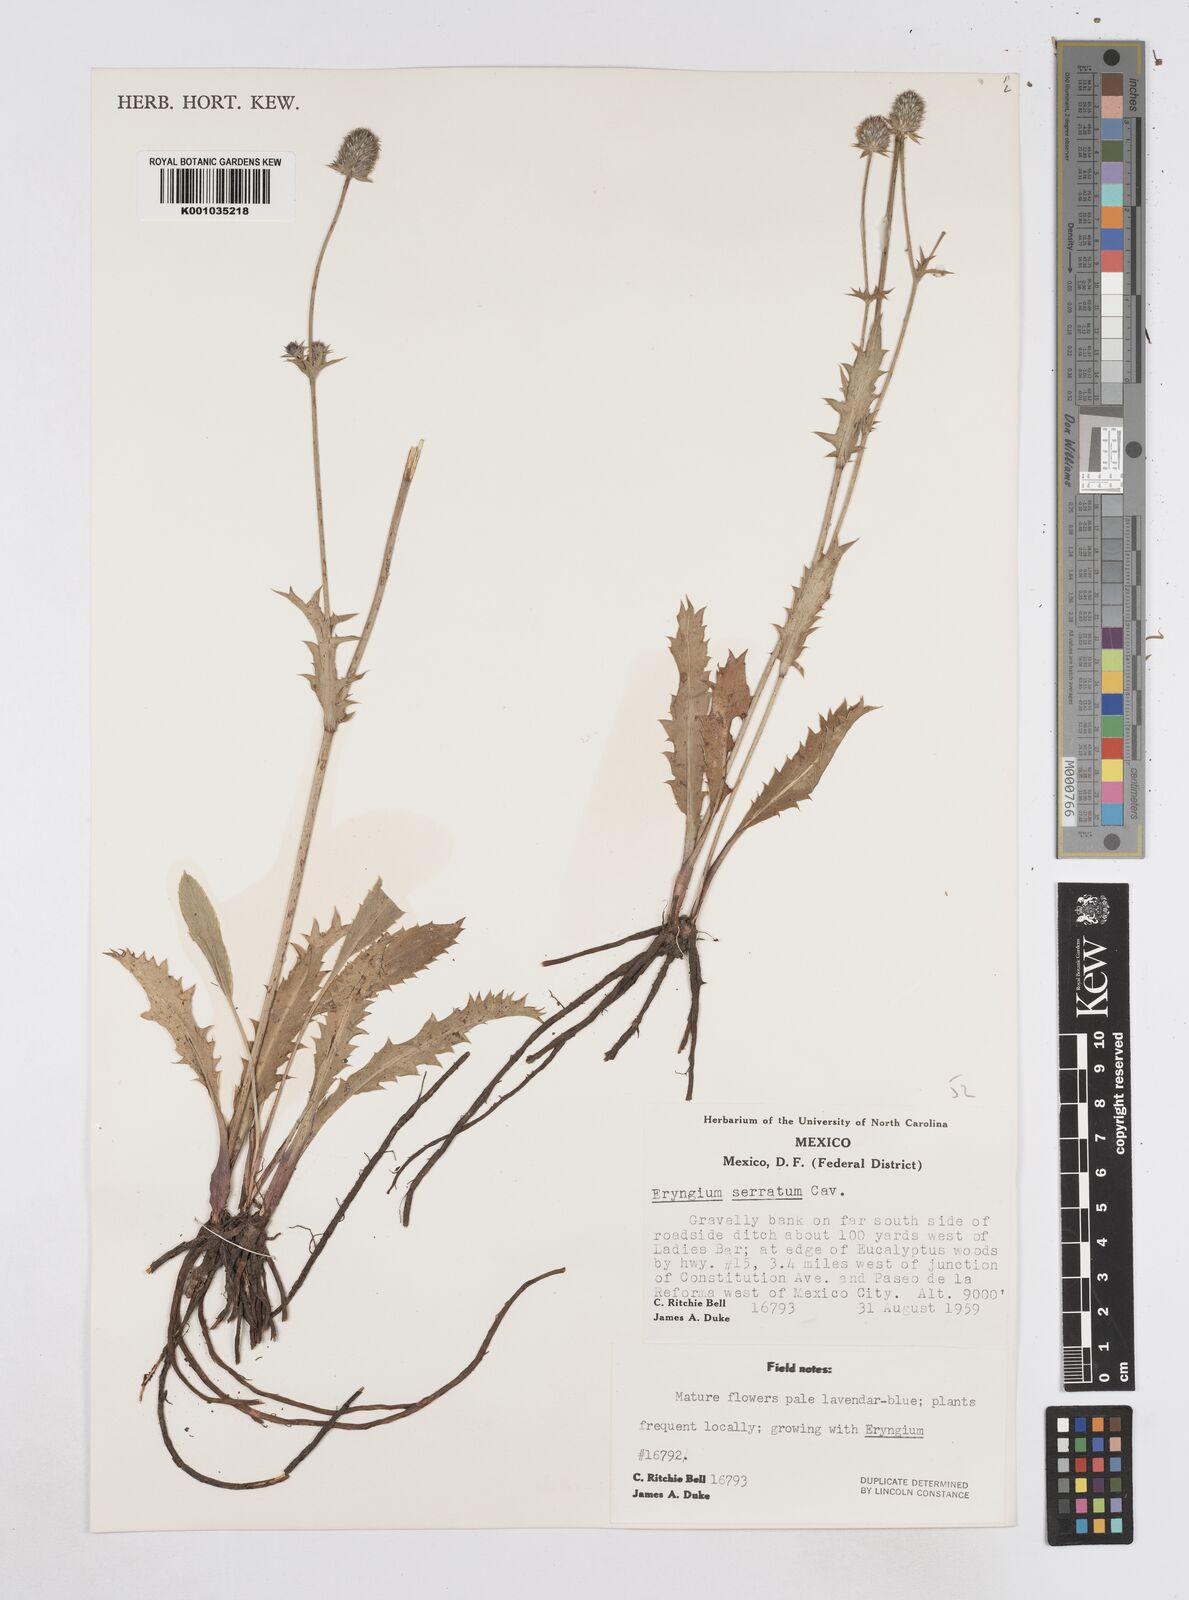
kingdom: Plantae
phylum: Tracheophyta
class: Magnoliopsida
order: Apiales
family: Apiaceae
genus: Eryngium
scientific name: Eryngium serratum
